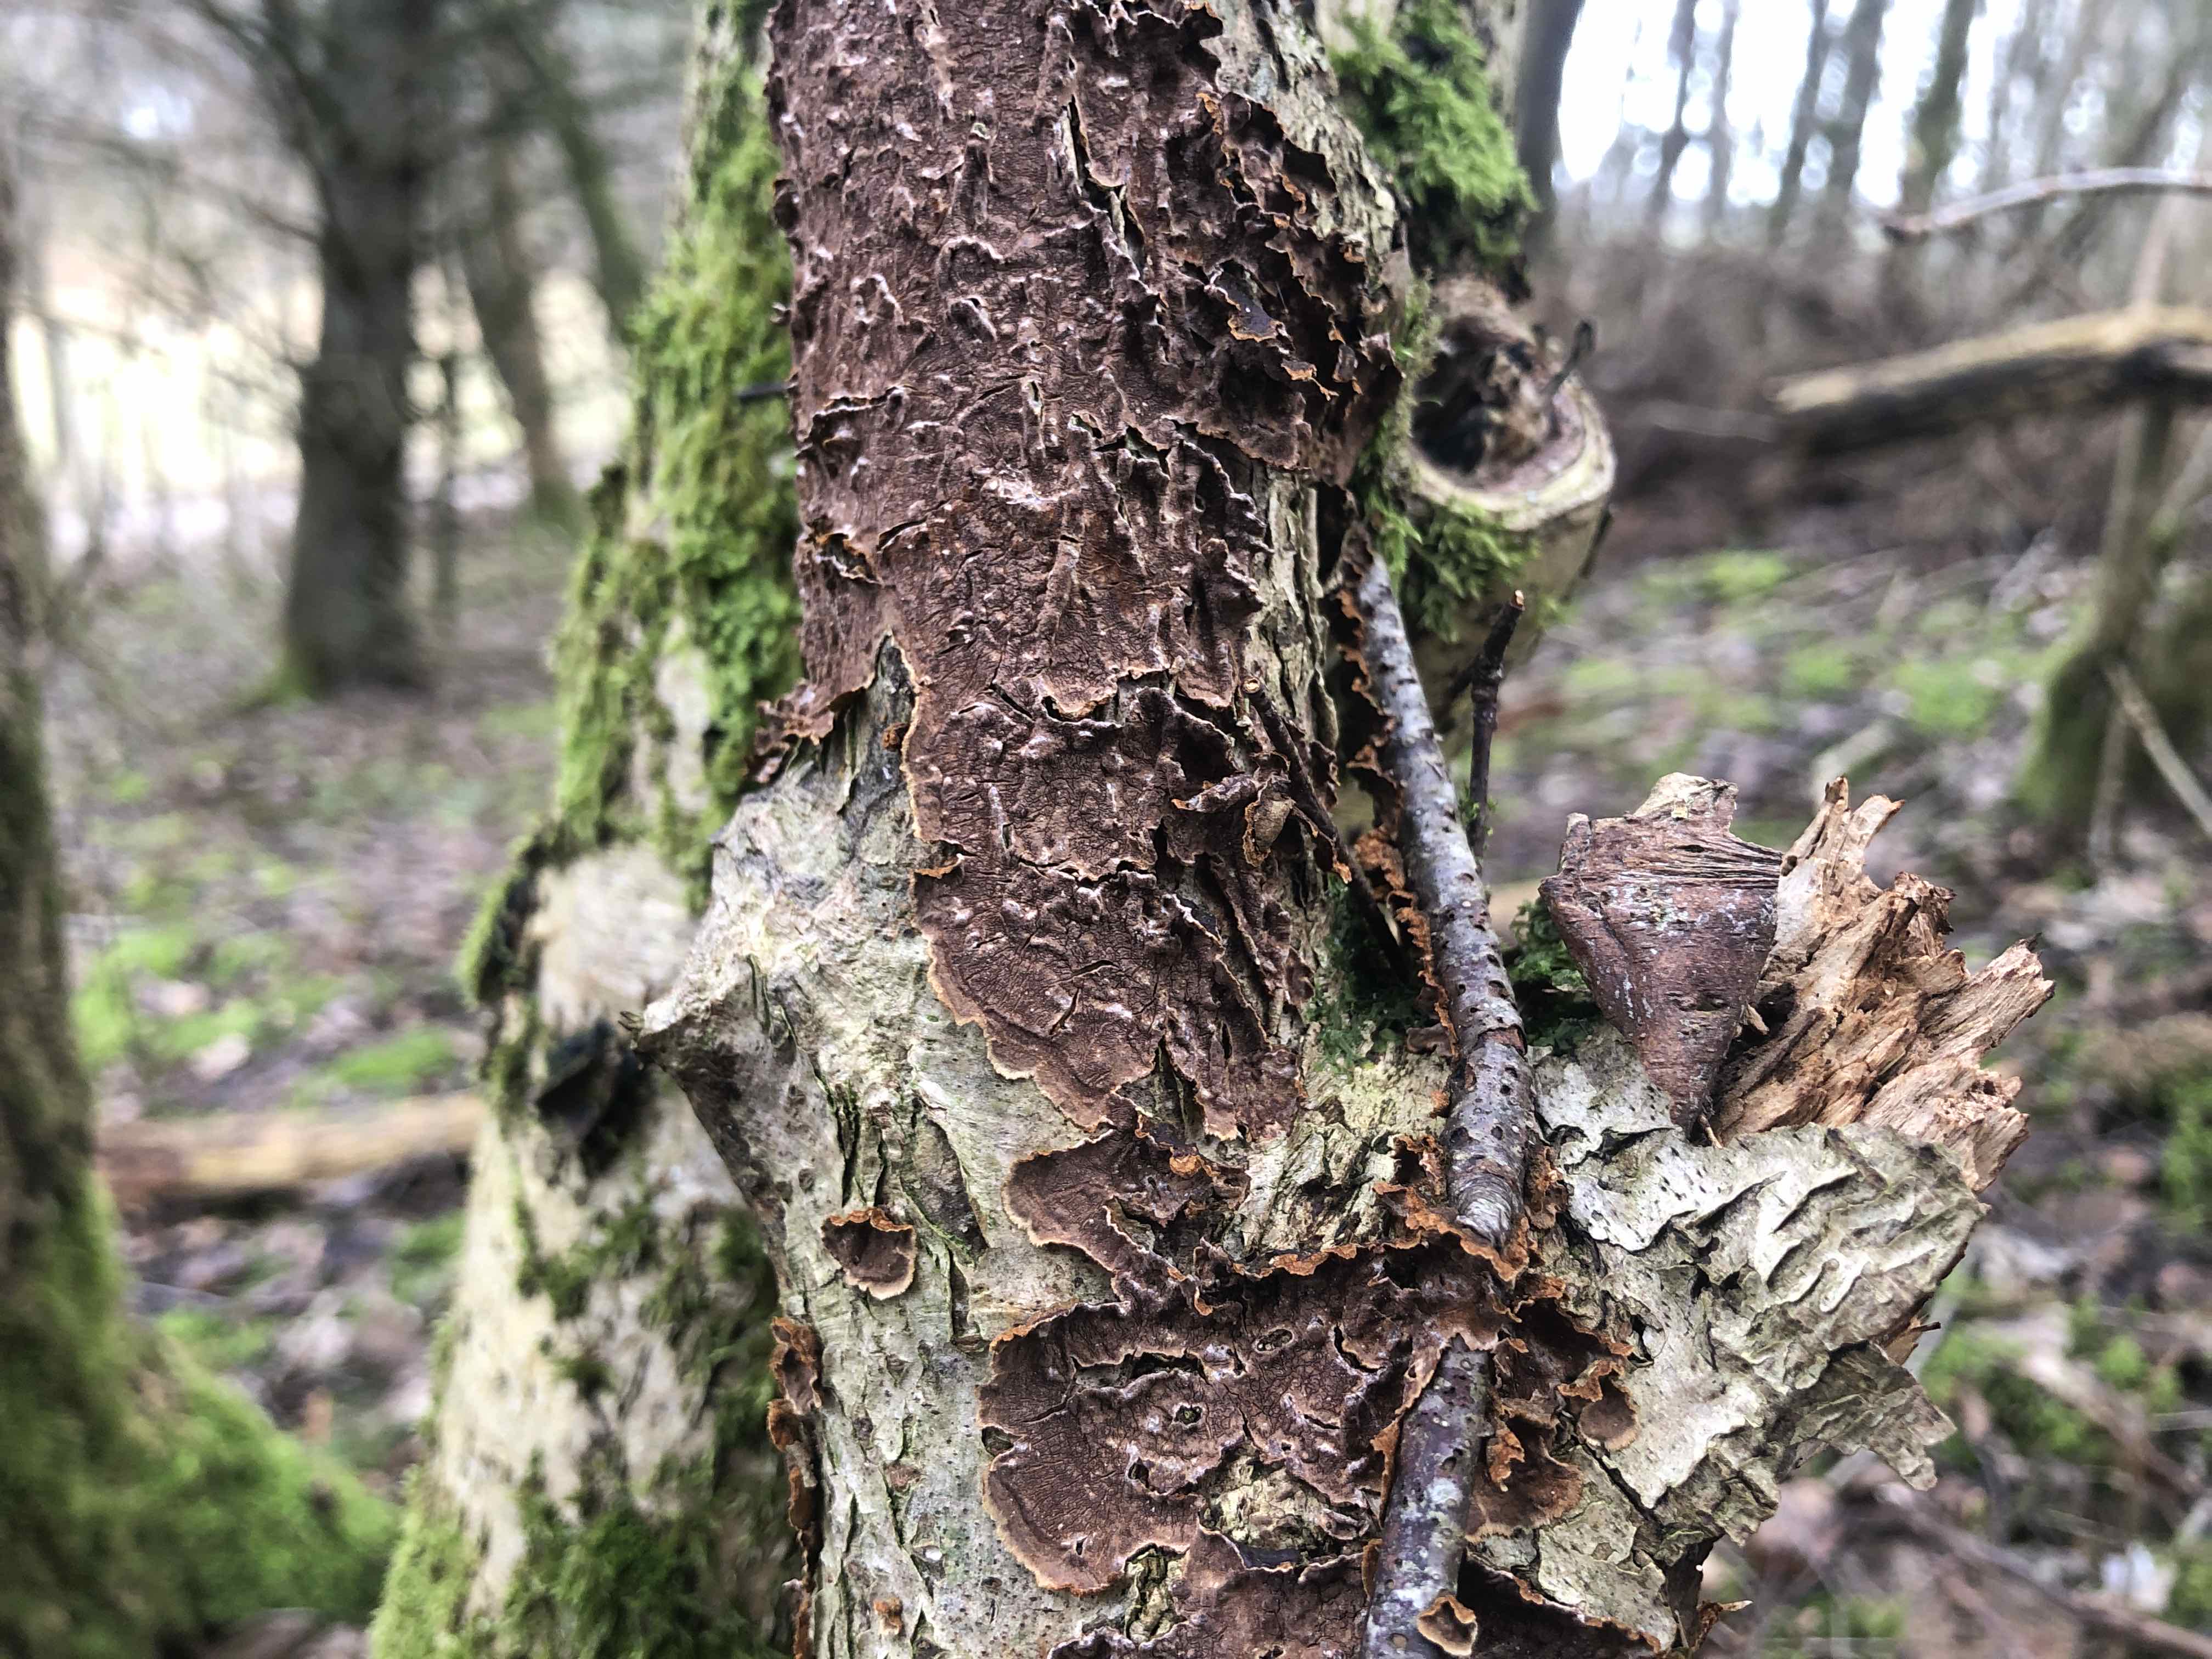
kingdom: Fungi
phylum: Basidiomycota
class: Agaricomycetes
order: Hymenochaetales
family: Hymenochaetaceae
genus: Hydnoporia
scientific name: Hydnoporia tabacina
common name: tobaksbrun ruslædersvamp
